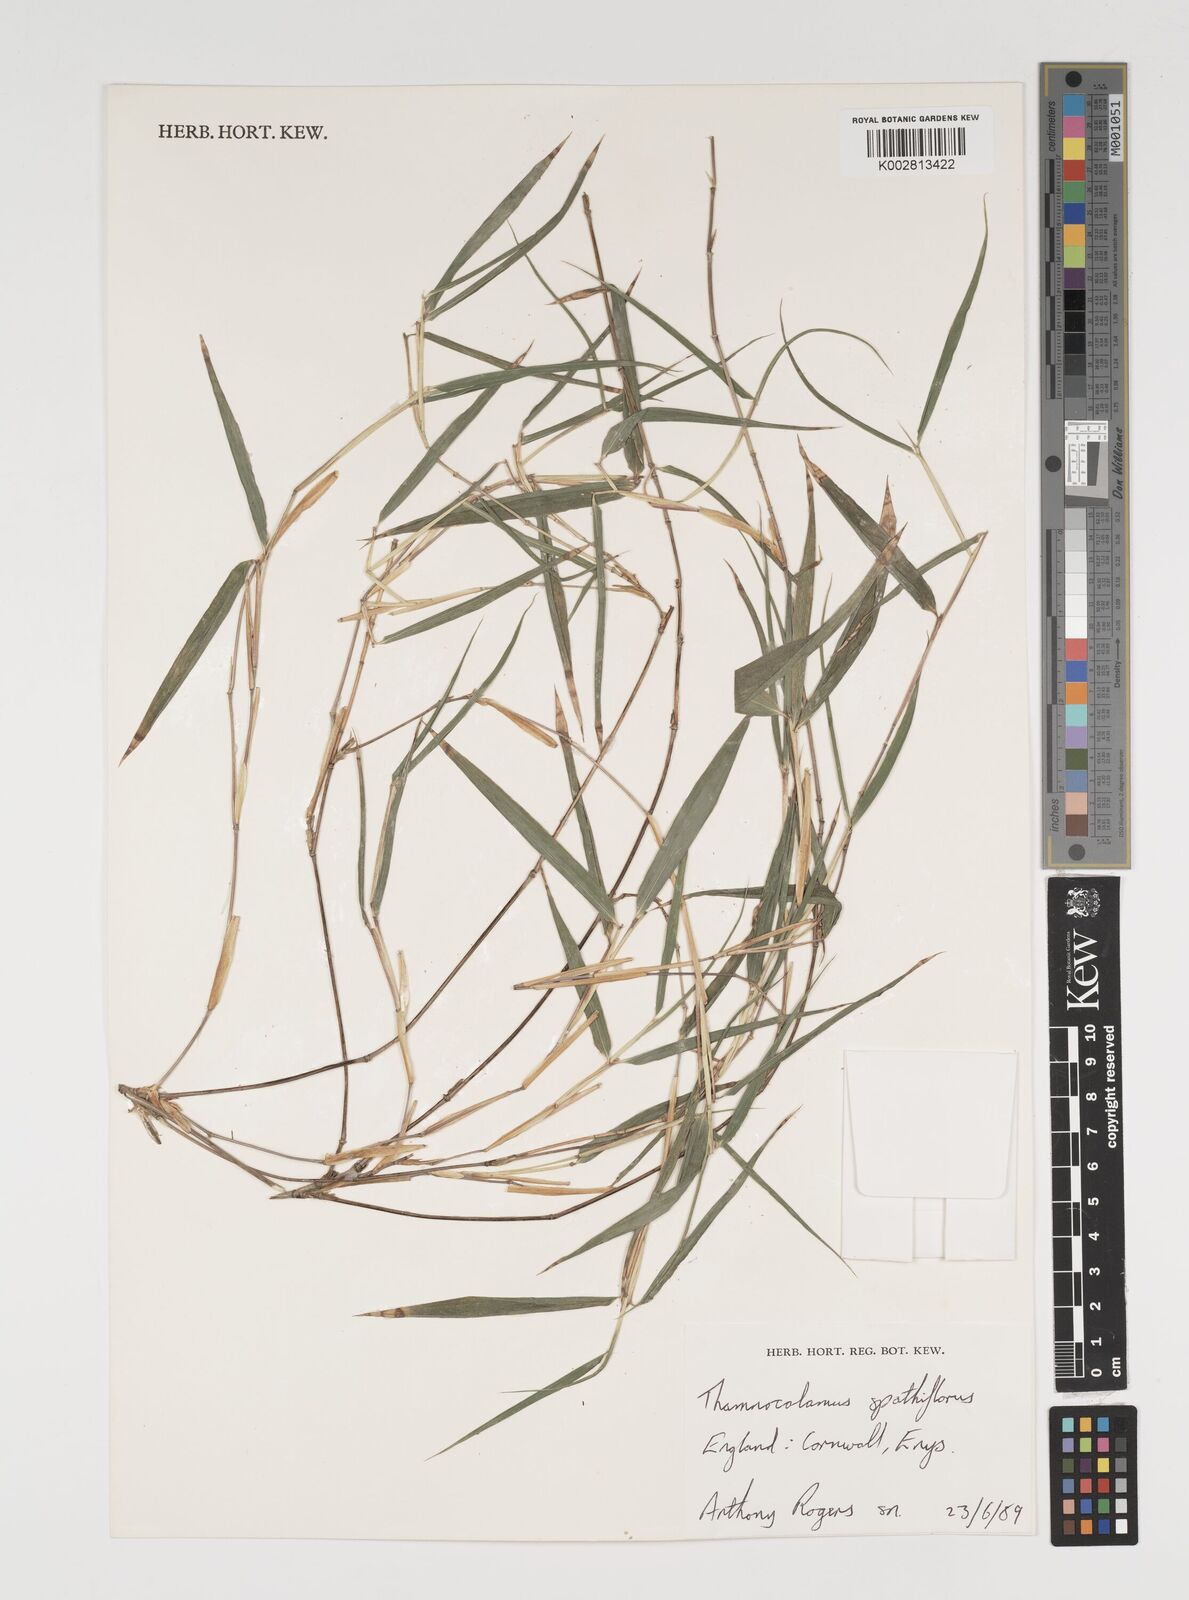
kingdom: Plantae
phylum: Tracheophyta
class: Liliopsida
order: Poales
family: Poaceae
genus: Thamnocalamus
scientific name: Thamnocalamus spathiflorus
